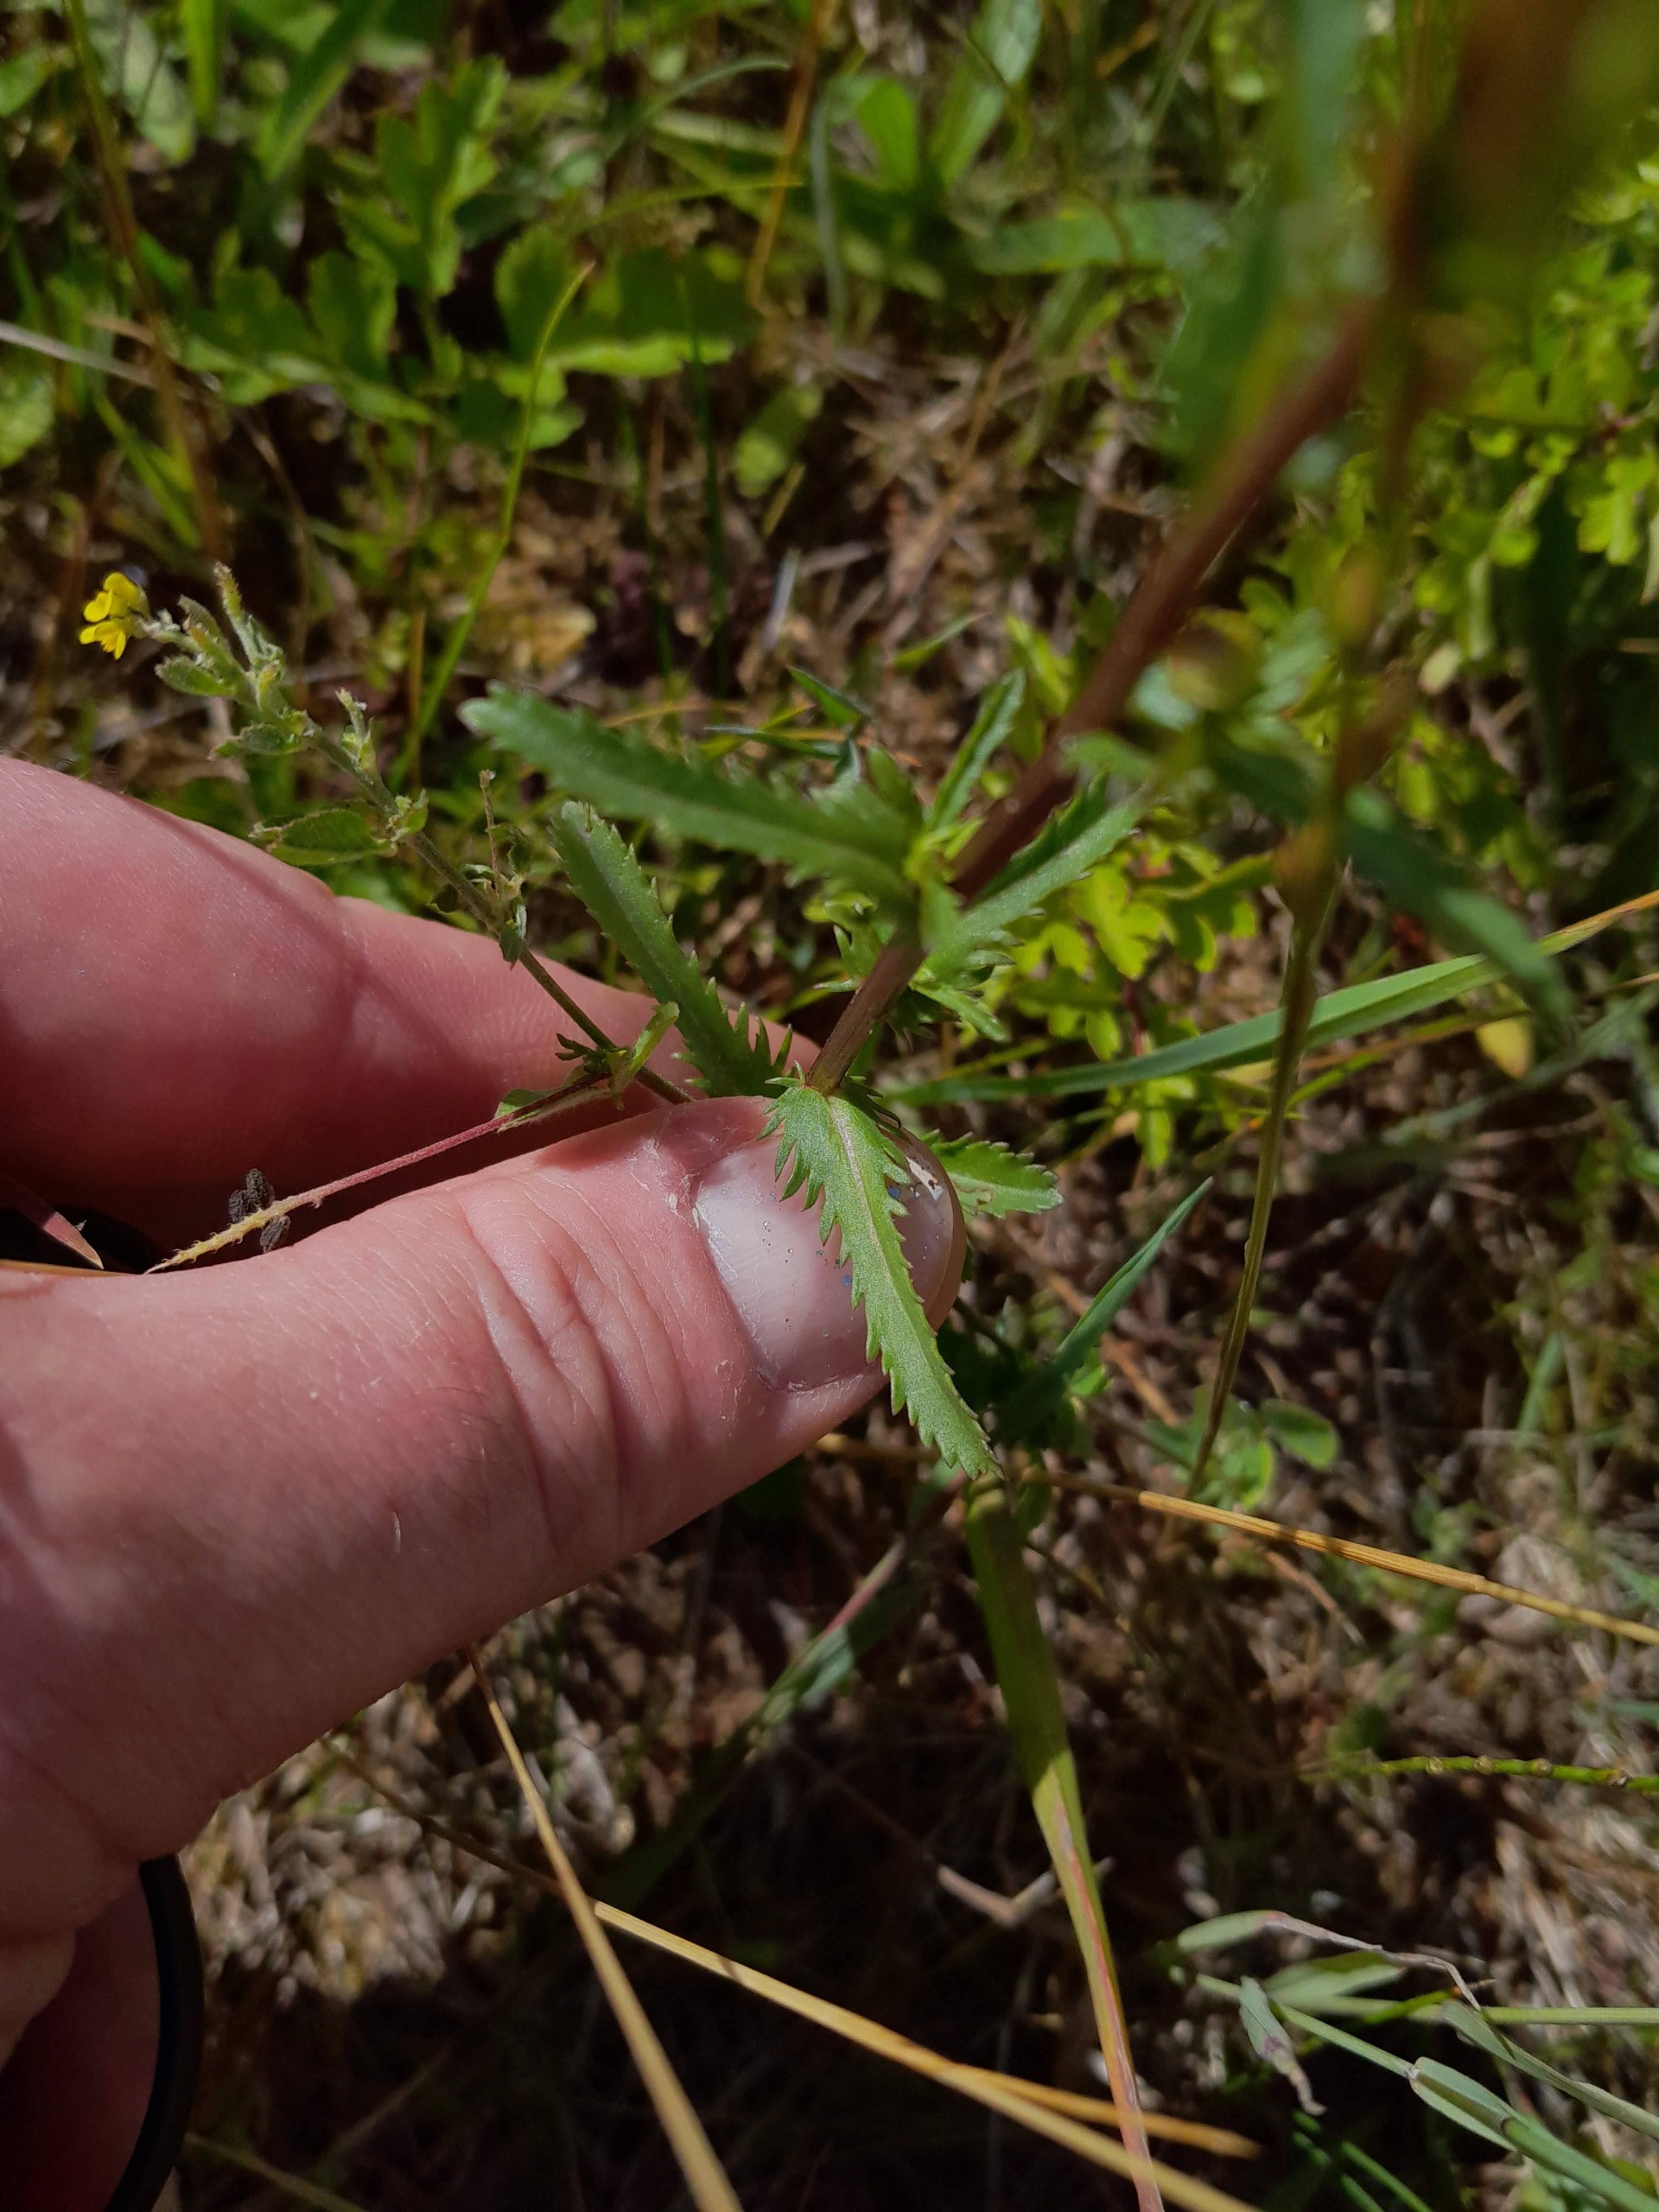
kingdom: Plantae
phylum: Tracheophyta
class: Magnoliopsida
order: Asterales
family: Asteraceae
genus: Leucanthemum
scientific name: Leucanthemum vulgare
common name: Hvid okseøje
